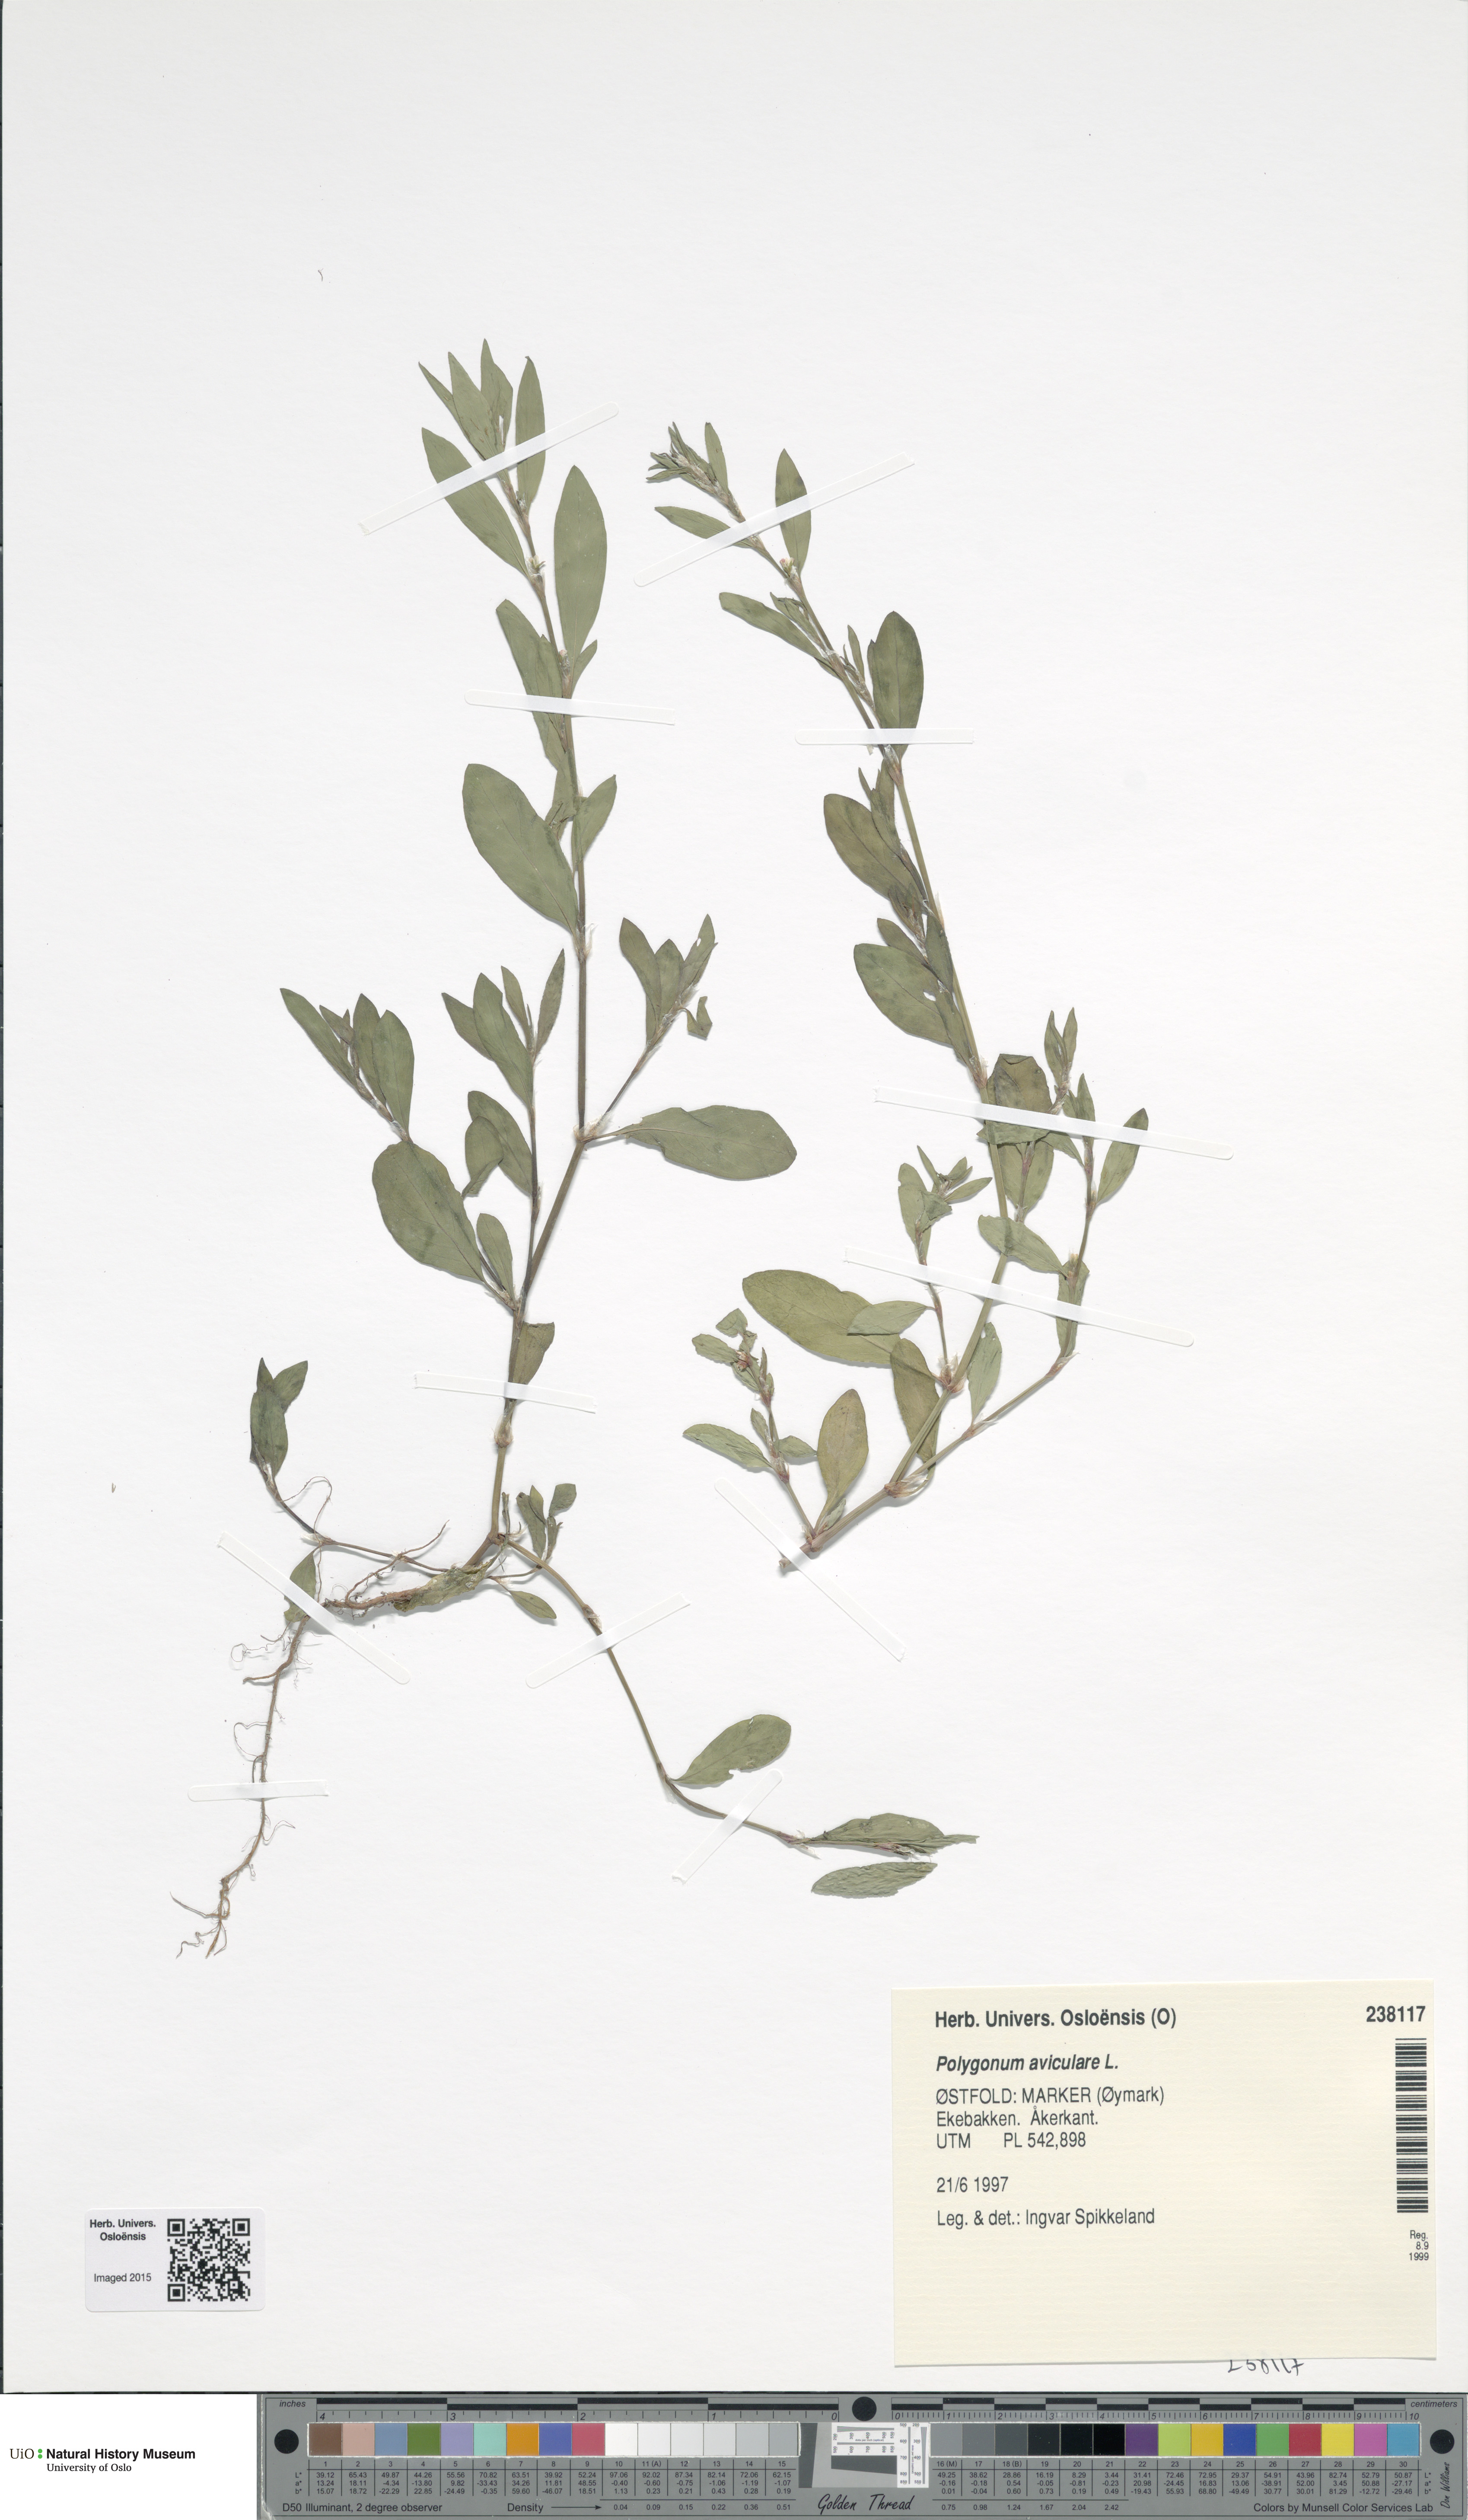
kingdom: Plantae
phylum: Tracheophyta
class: Magnoliopsida
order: Caryophyllales
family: Polygonaceae
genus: Polygonum
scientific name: Polygonum aviculare
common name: Prostrate knotweed
